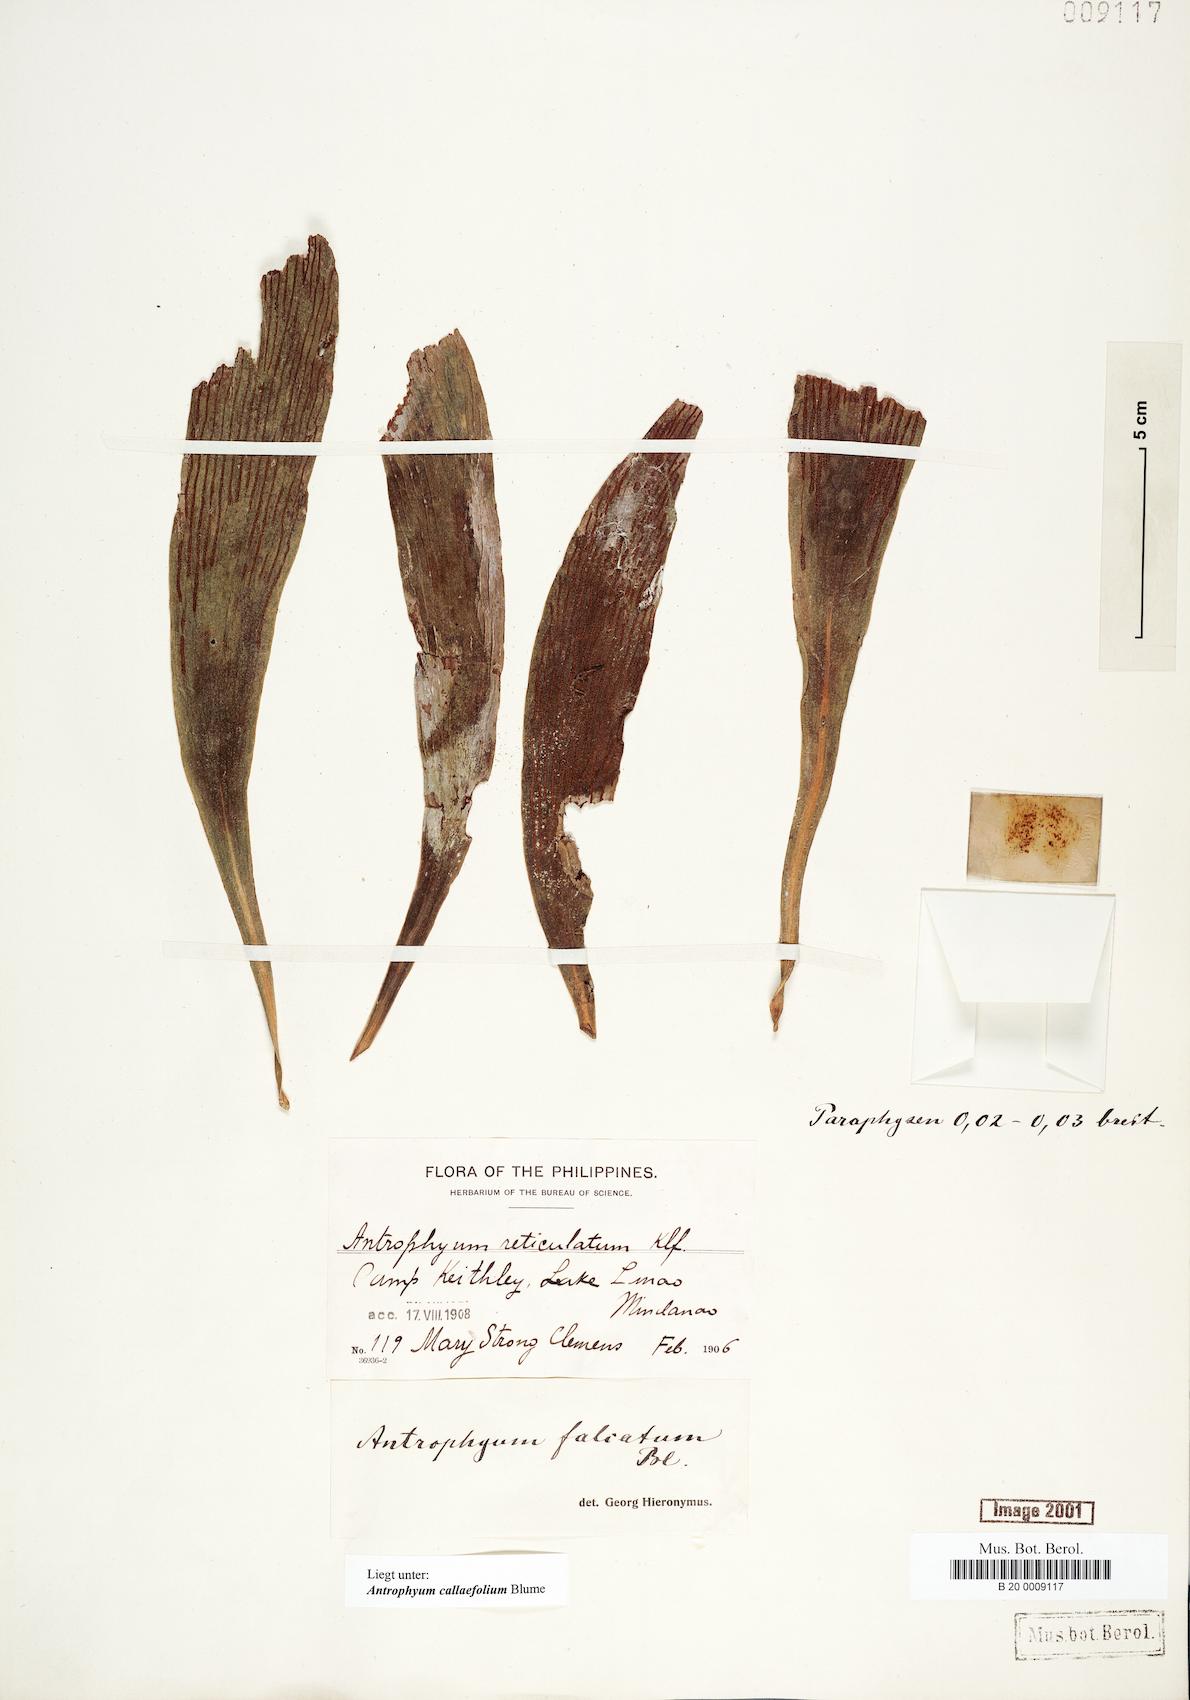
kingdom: Plantae
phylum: Tracheophyta
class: Polypodiopsida
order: Polypodiales
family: Pteridaceae
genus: Antrophyum
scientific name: Antrophyum callifolium
